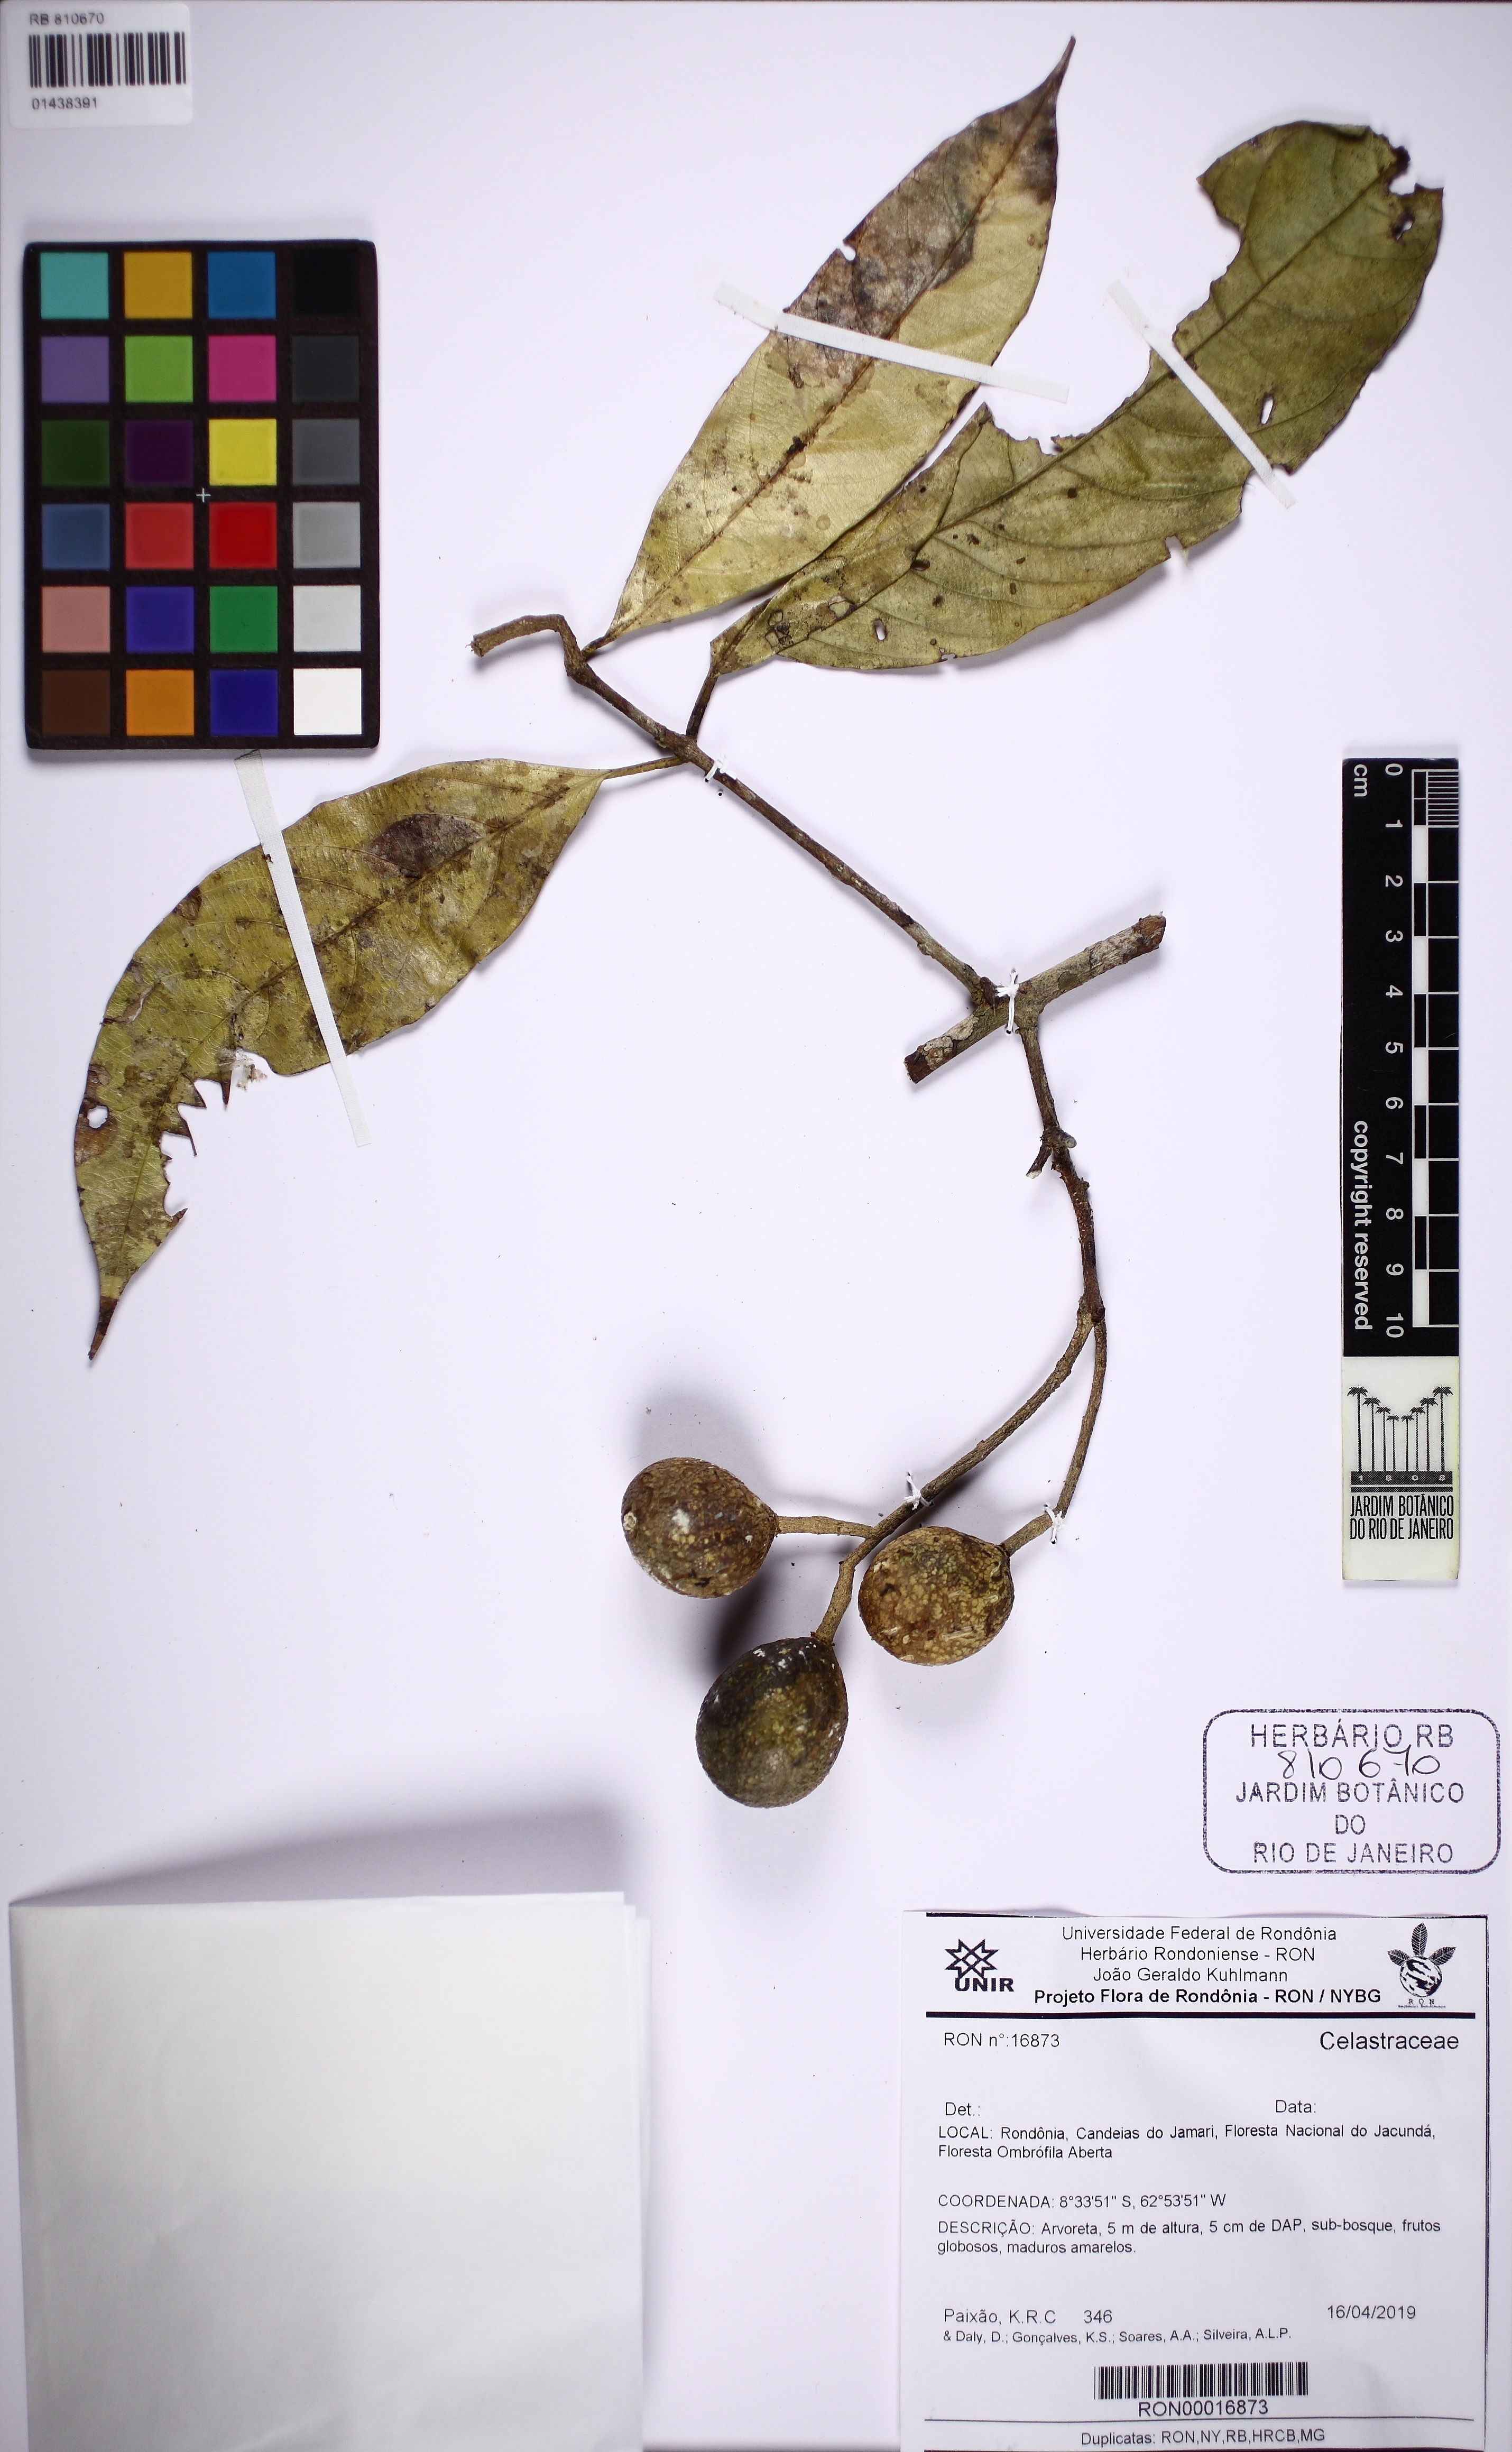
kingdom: Plantae
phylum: Tracheophyta
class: Magnoliopsida
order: Celastrales
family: Celastraceae
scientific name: Celastraceae
